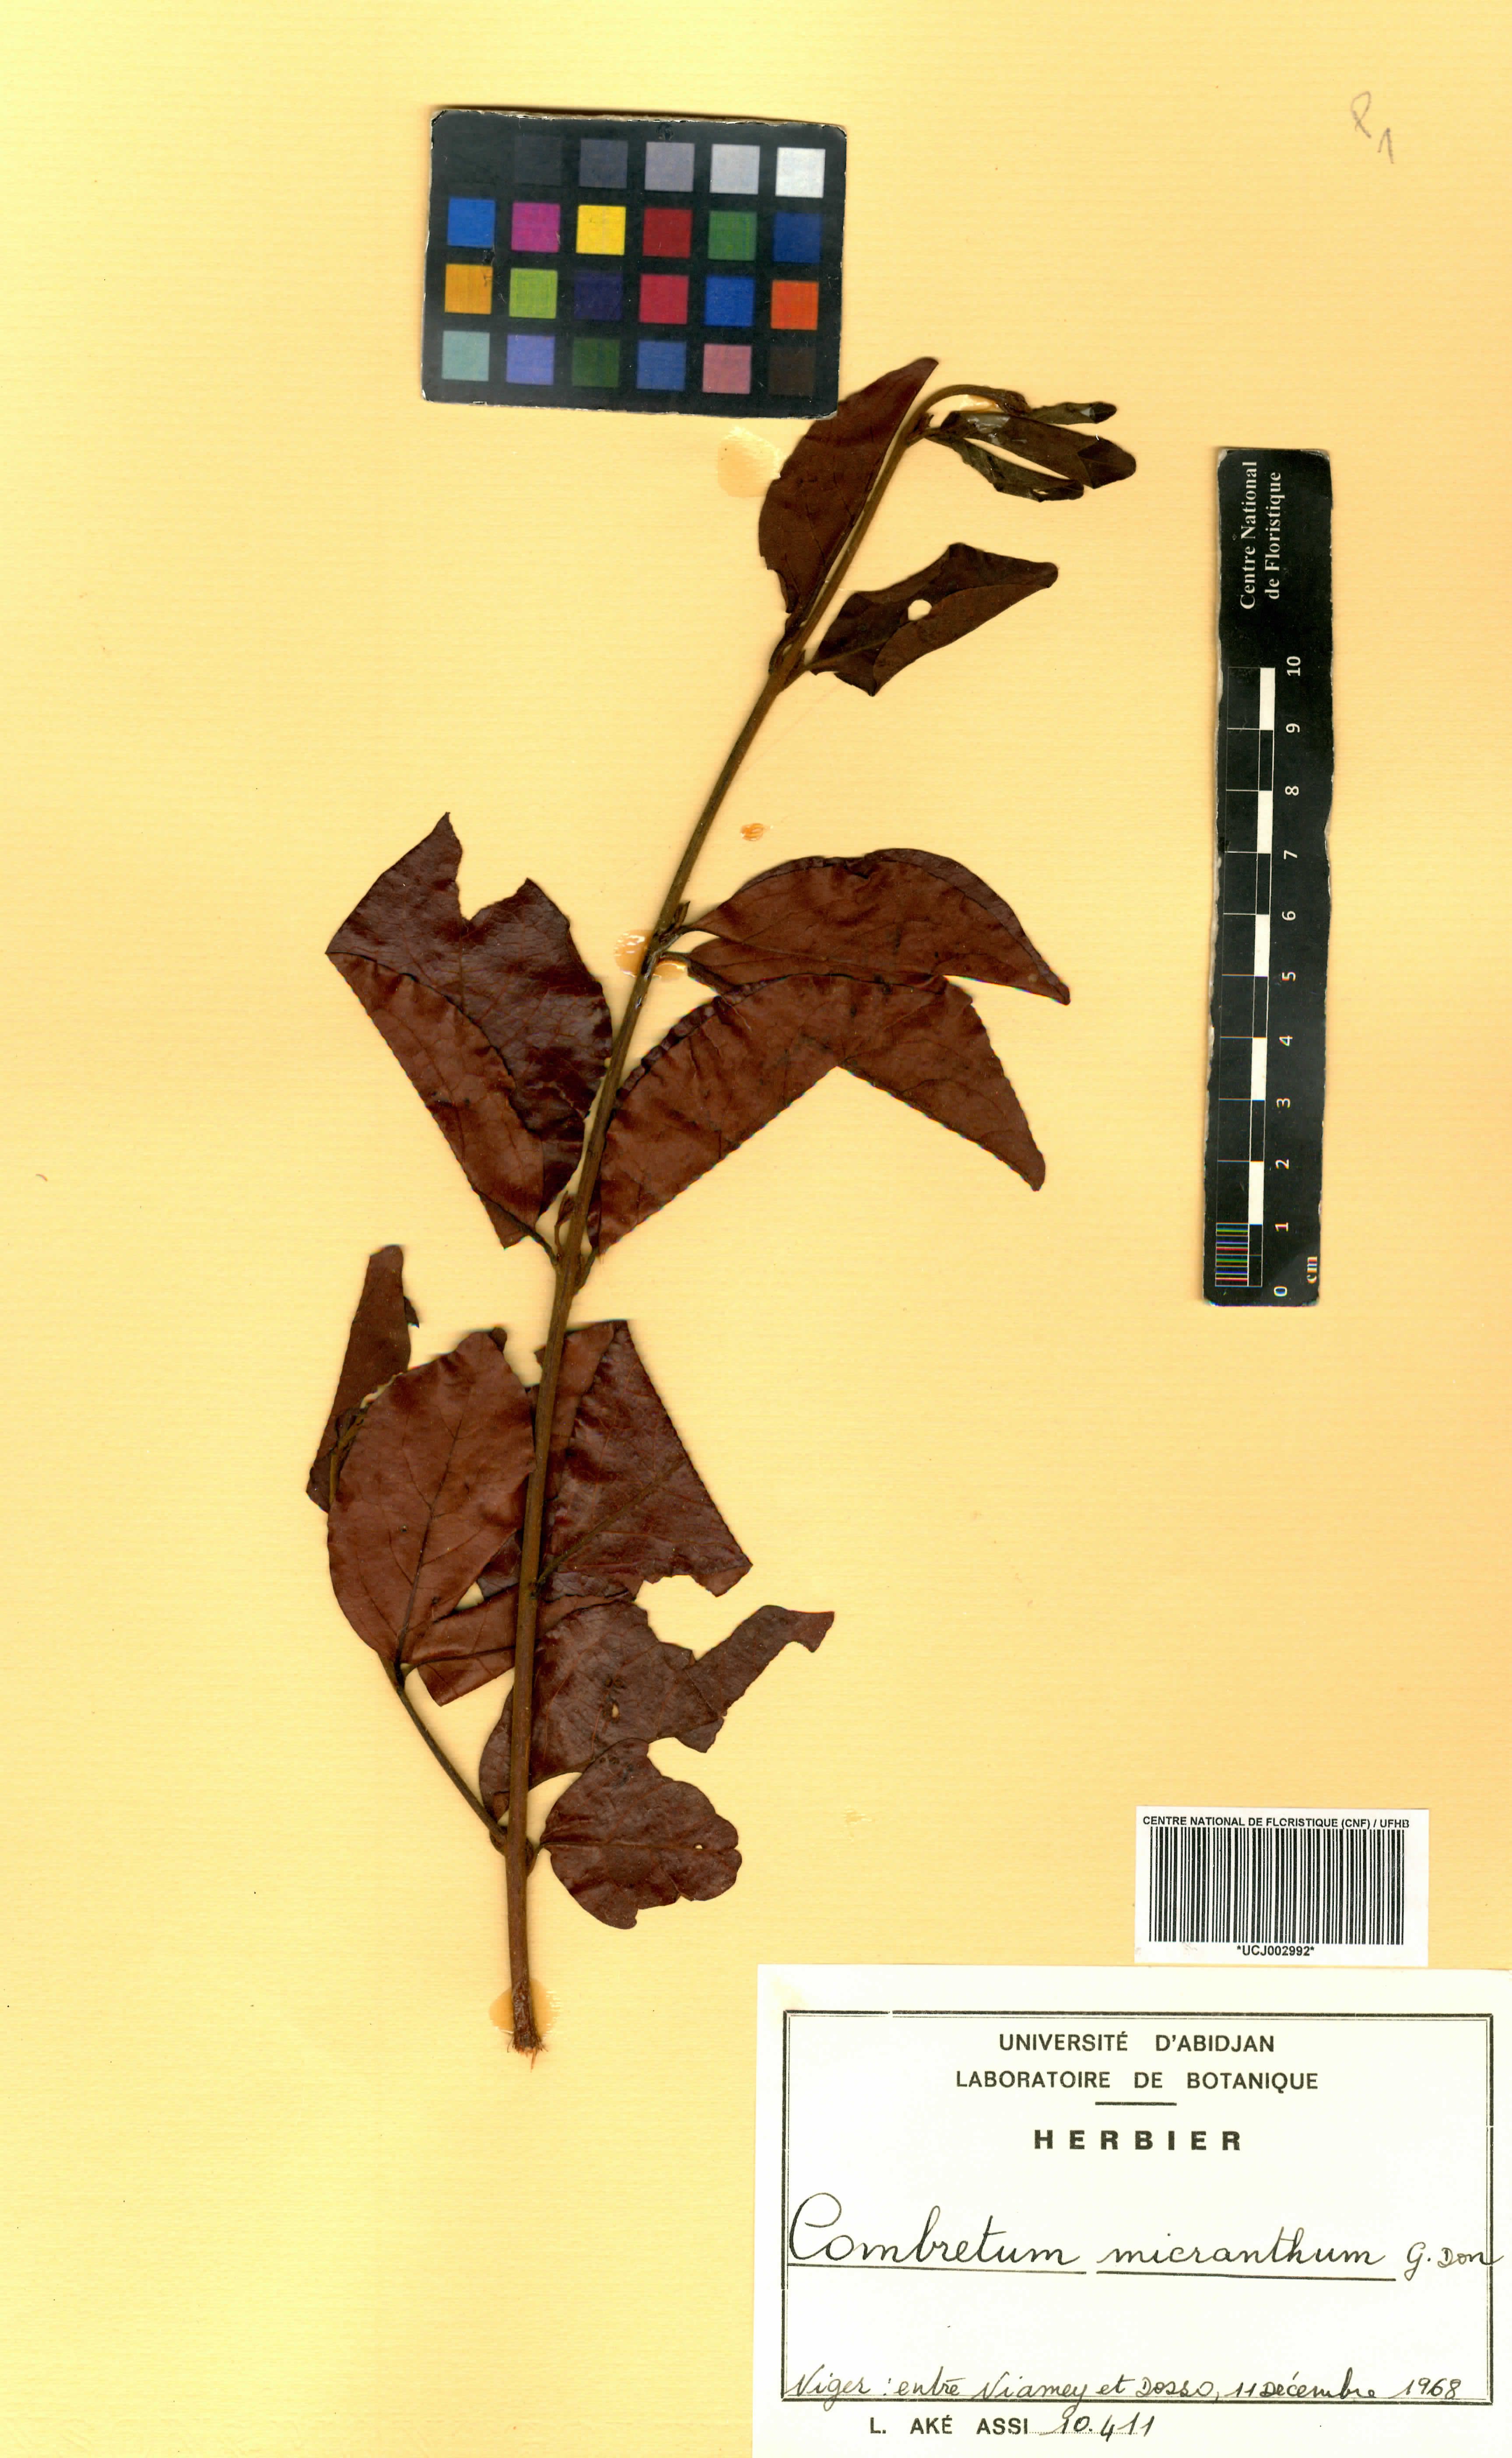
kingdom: Plantae
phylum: Tracheophyta
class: Magnoliopsida
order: Myrtales
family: Combretaceae
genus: Combretum
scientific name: Combretum micranthum
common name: Opium-antidote
